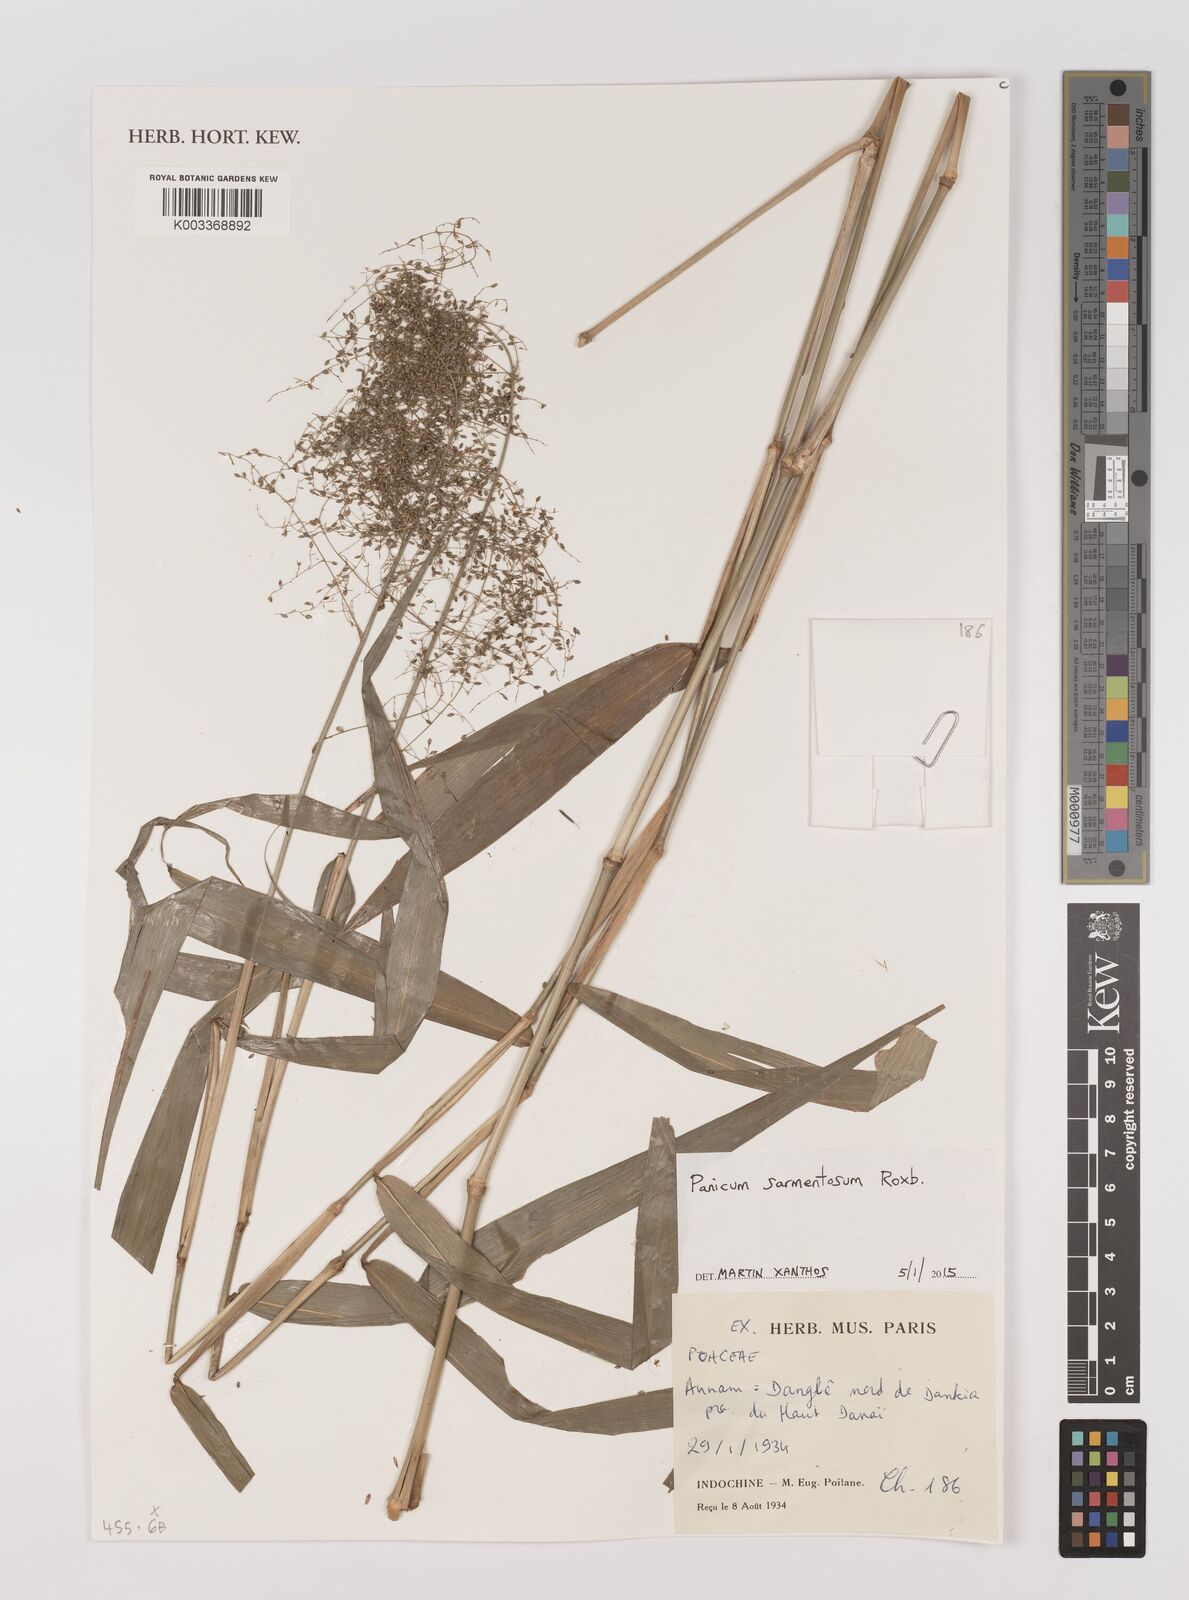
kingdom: Plantae
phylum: Tracheophyta
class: Liliopsida
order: Poales
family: Poaceae
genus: Panicum
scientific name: Panicum sarmentosum
